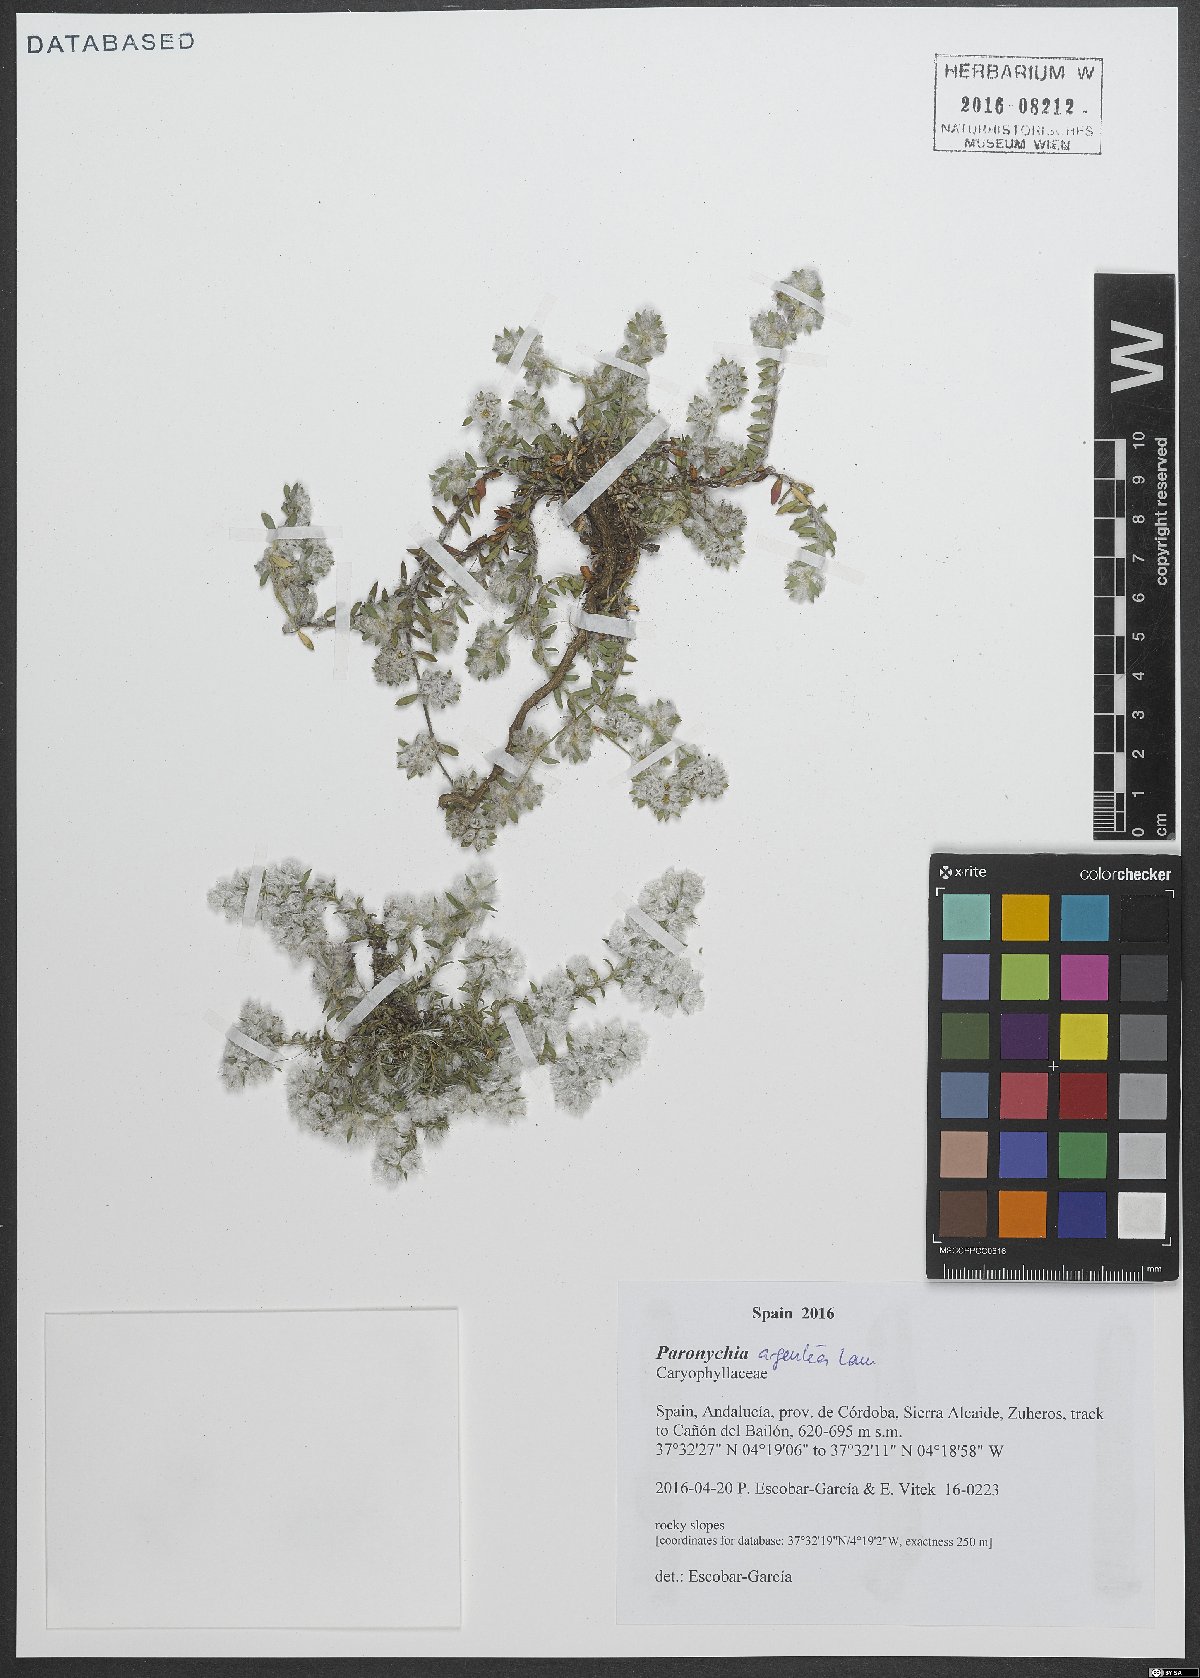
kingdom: Plantae
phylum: Tracheophyta
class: Magnoliopsida
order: Caryophyllales
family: Caryophyllaceae
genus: Paronychia
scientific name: Paronychia argentea
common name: Silver nailroot
